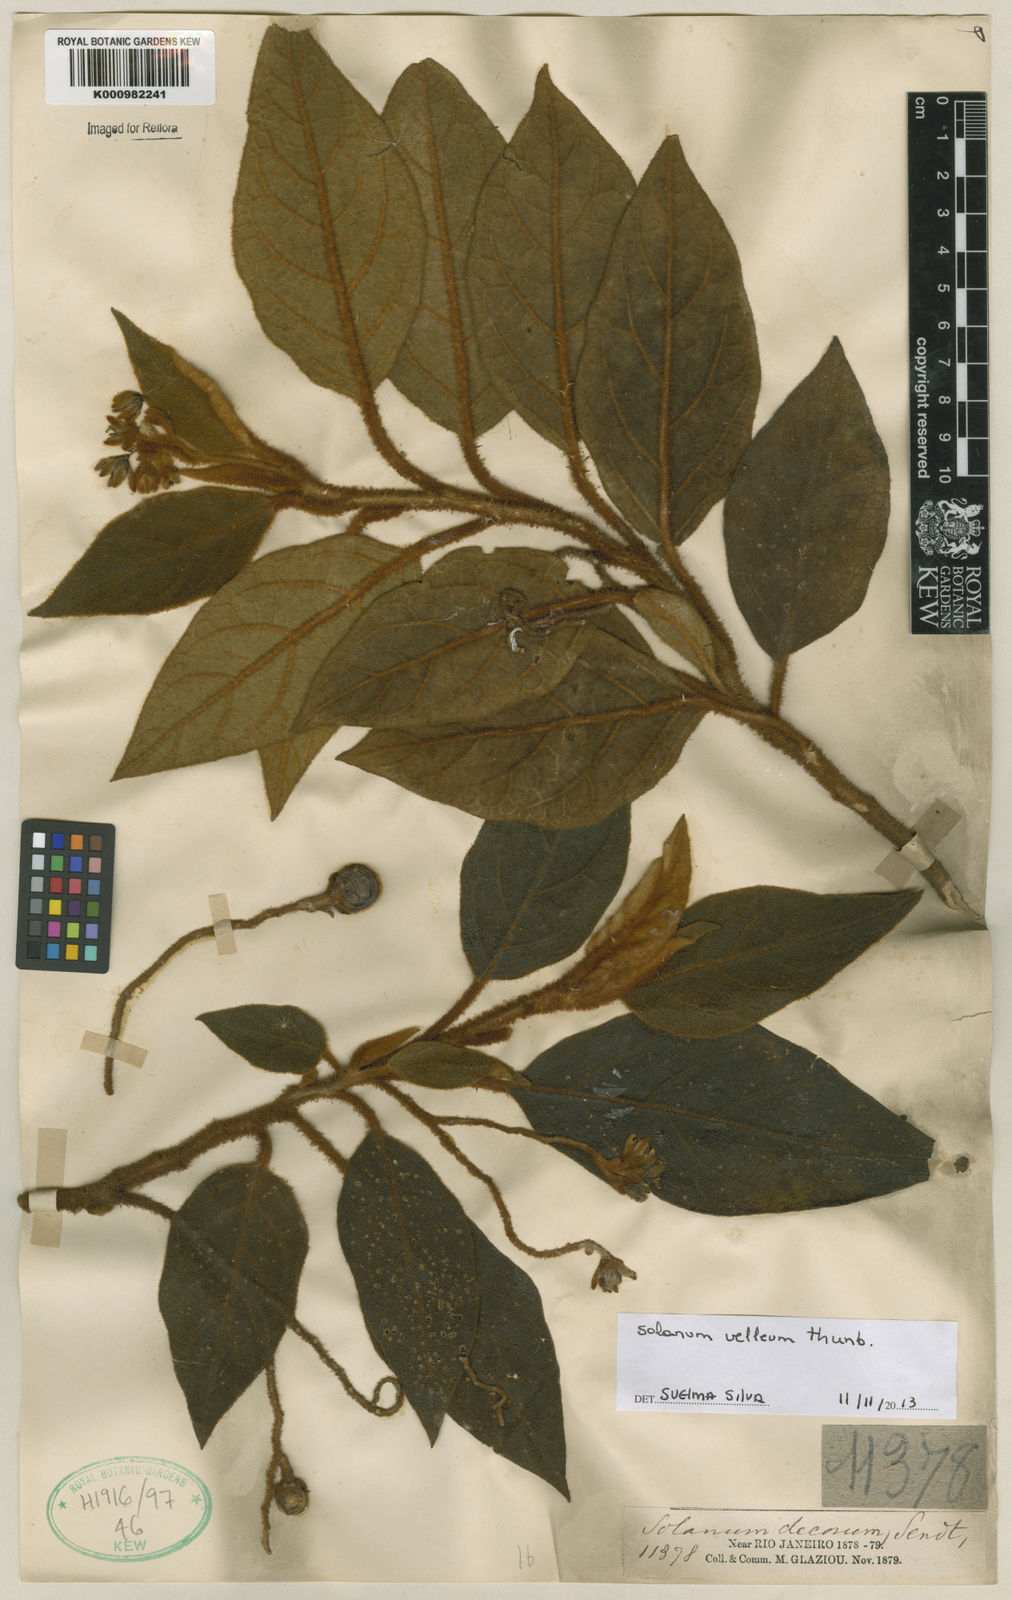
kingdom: Plantae
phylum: Tracheophyta
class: Magnoliopsida
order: Solanales
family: Solanaceae
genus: Solanum
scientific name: Solanum velleum
